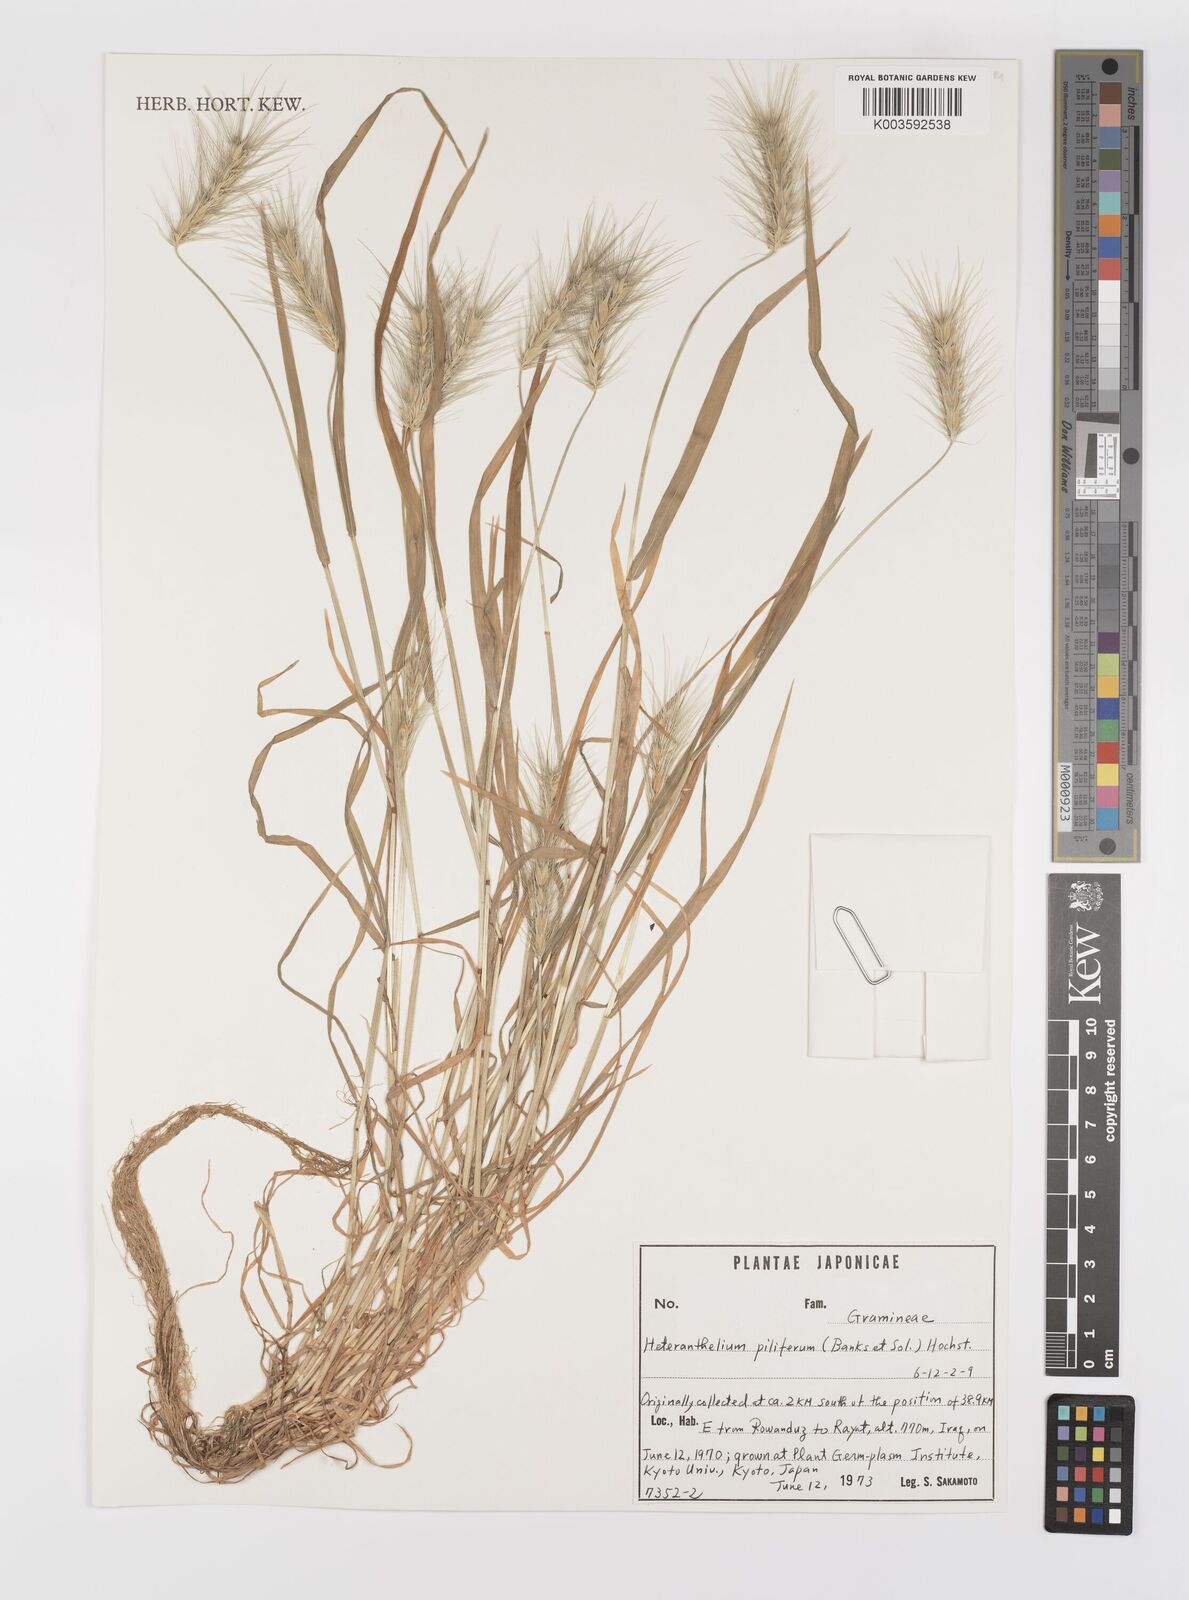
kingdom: Plantae
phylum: Tracheophyta
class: Liliopsida
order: Poales
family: Poaceae
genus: Heteranthelium
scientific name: Heteranthelium piliferum
